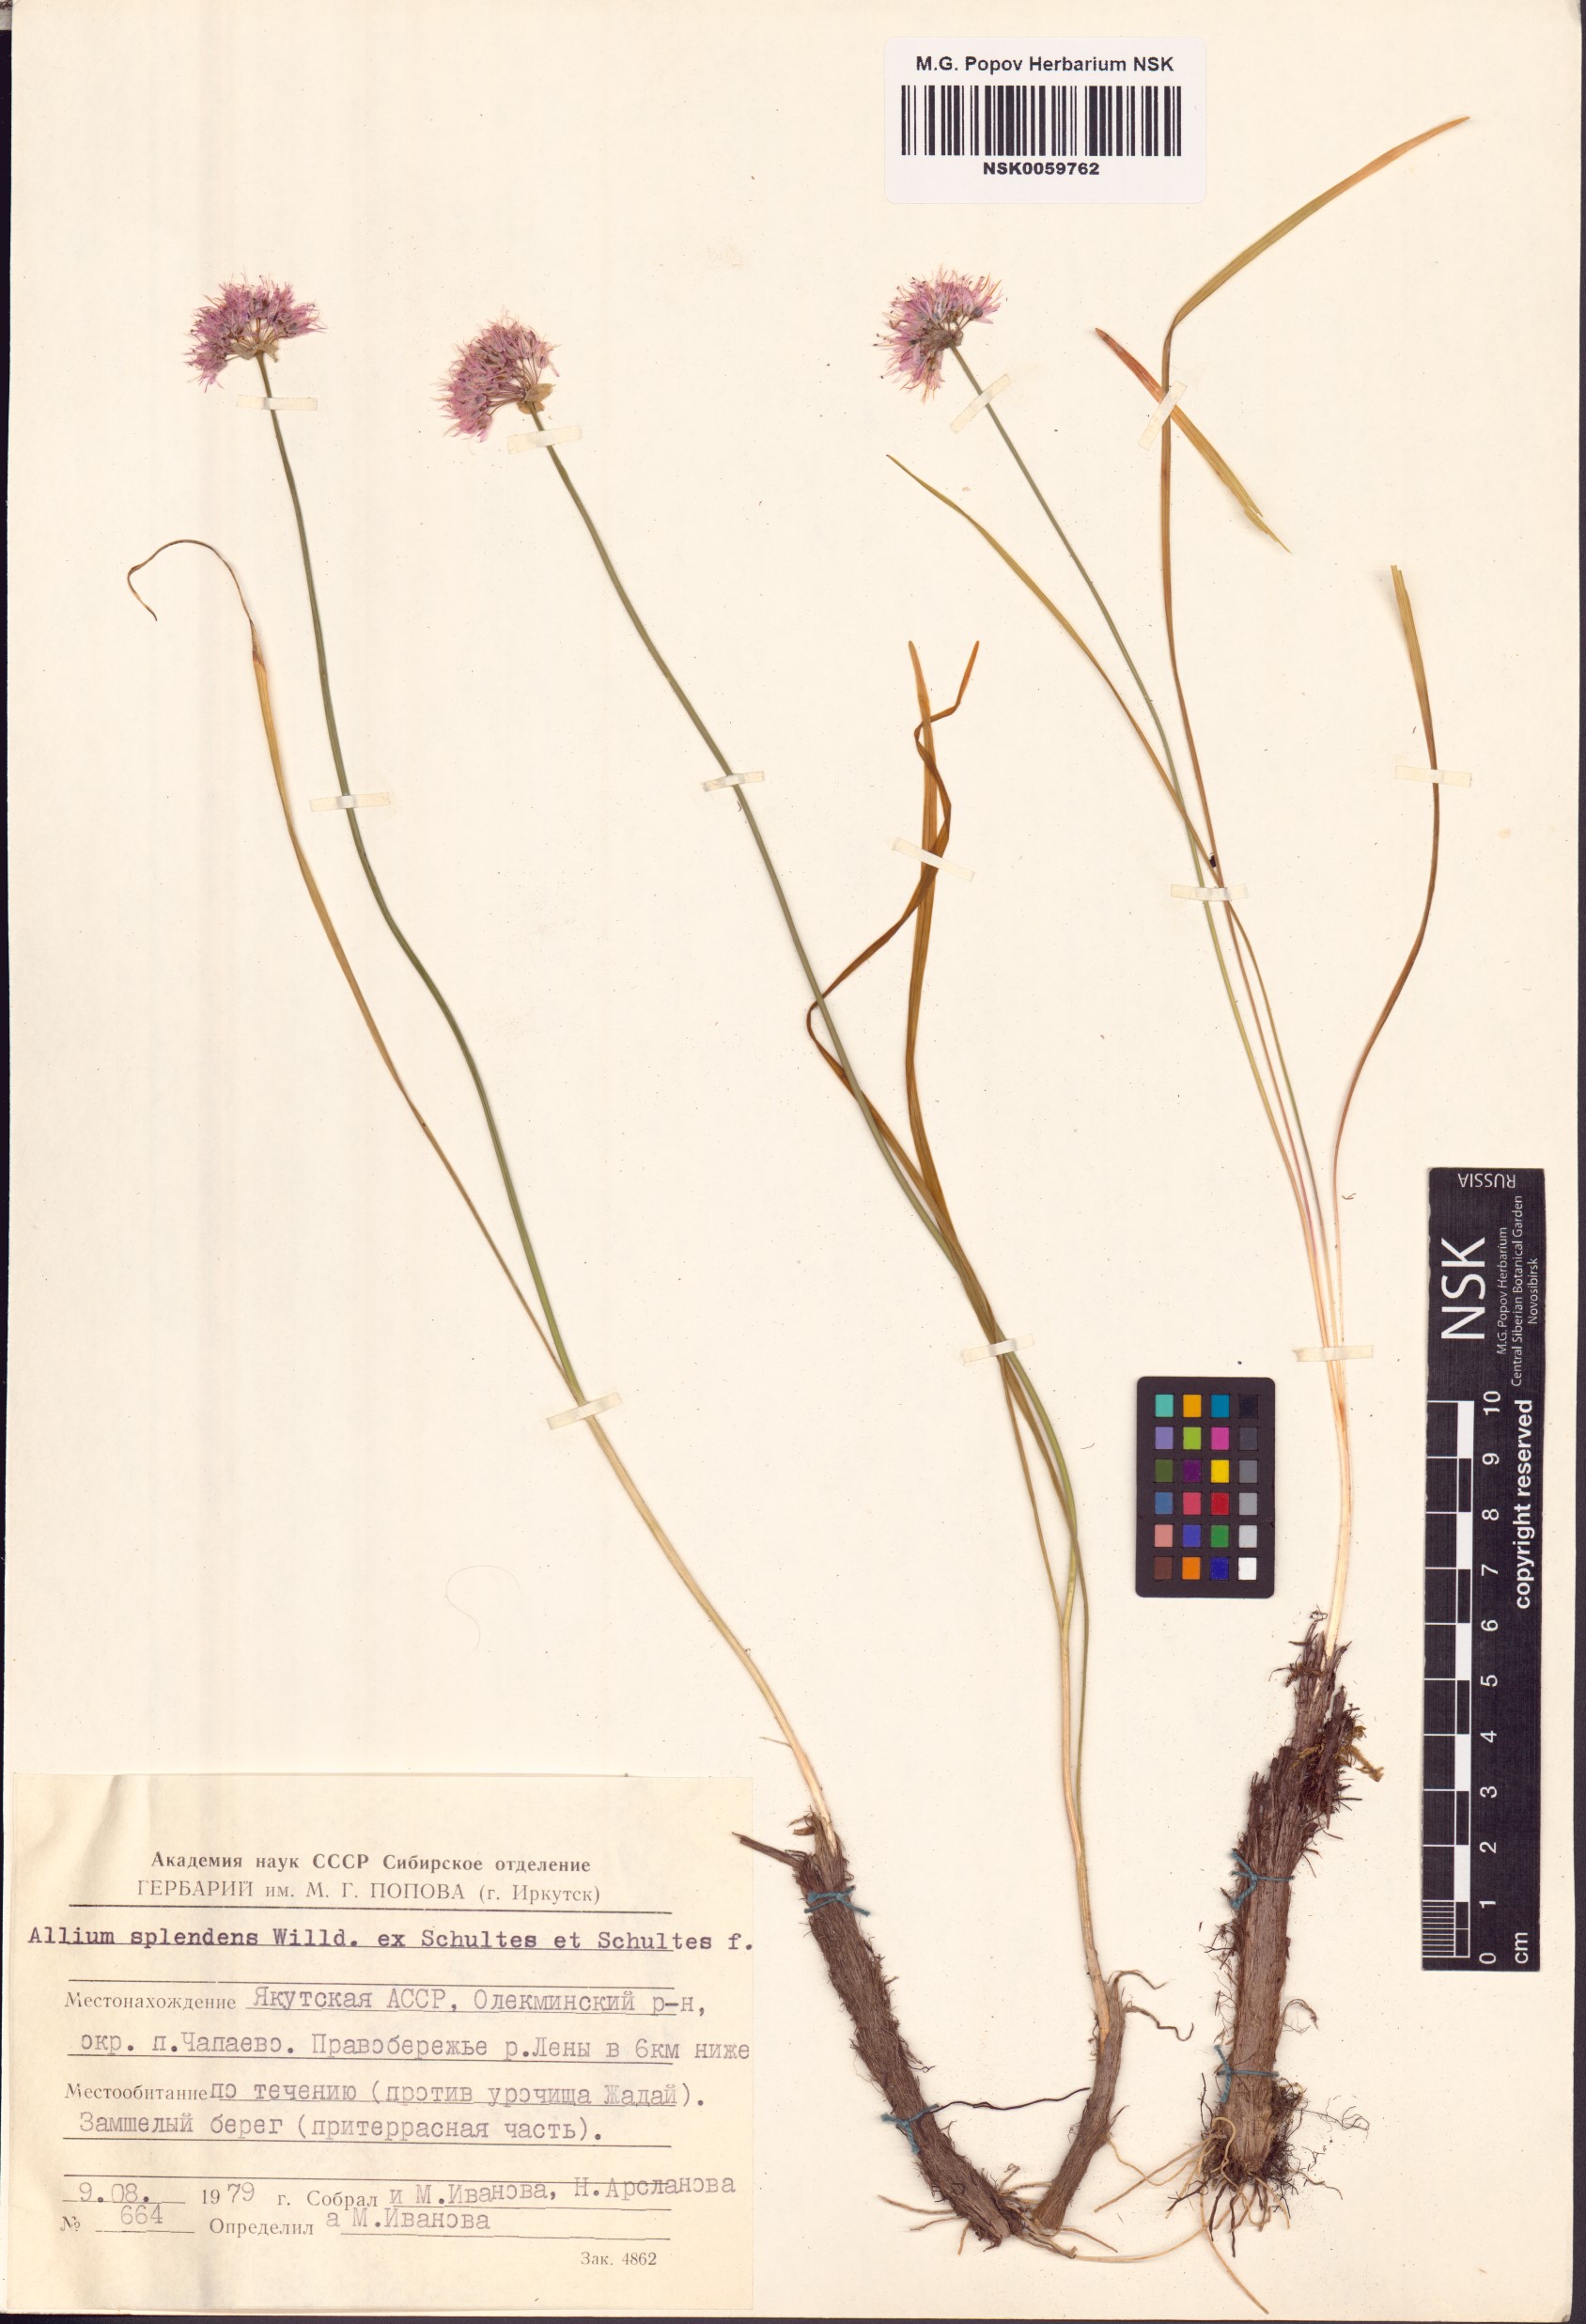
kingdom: Plantae
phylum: Tracheophyta
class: Liliopsida
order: Asparagales
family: Amaryllidaceae
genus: Allium
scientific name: Allium splendens
